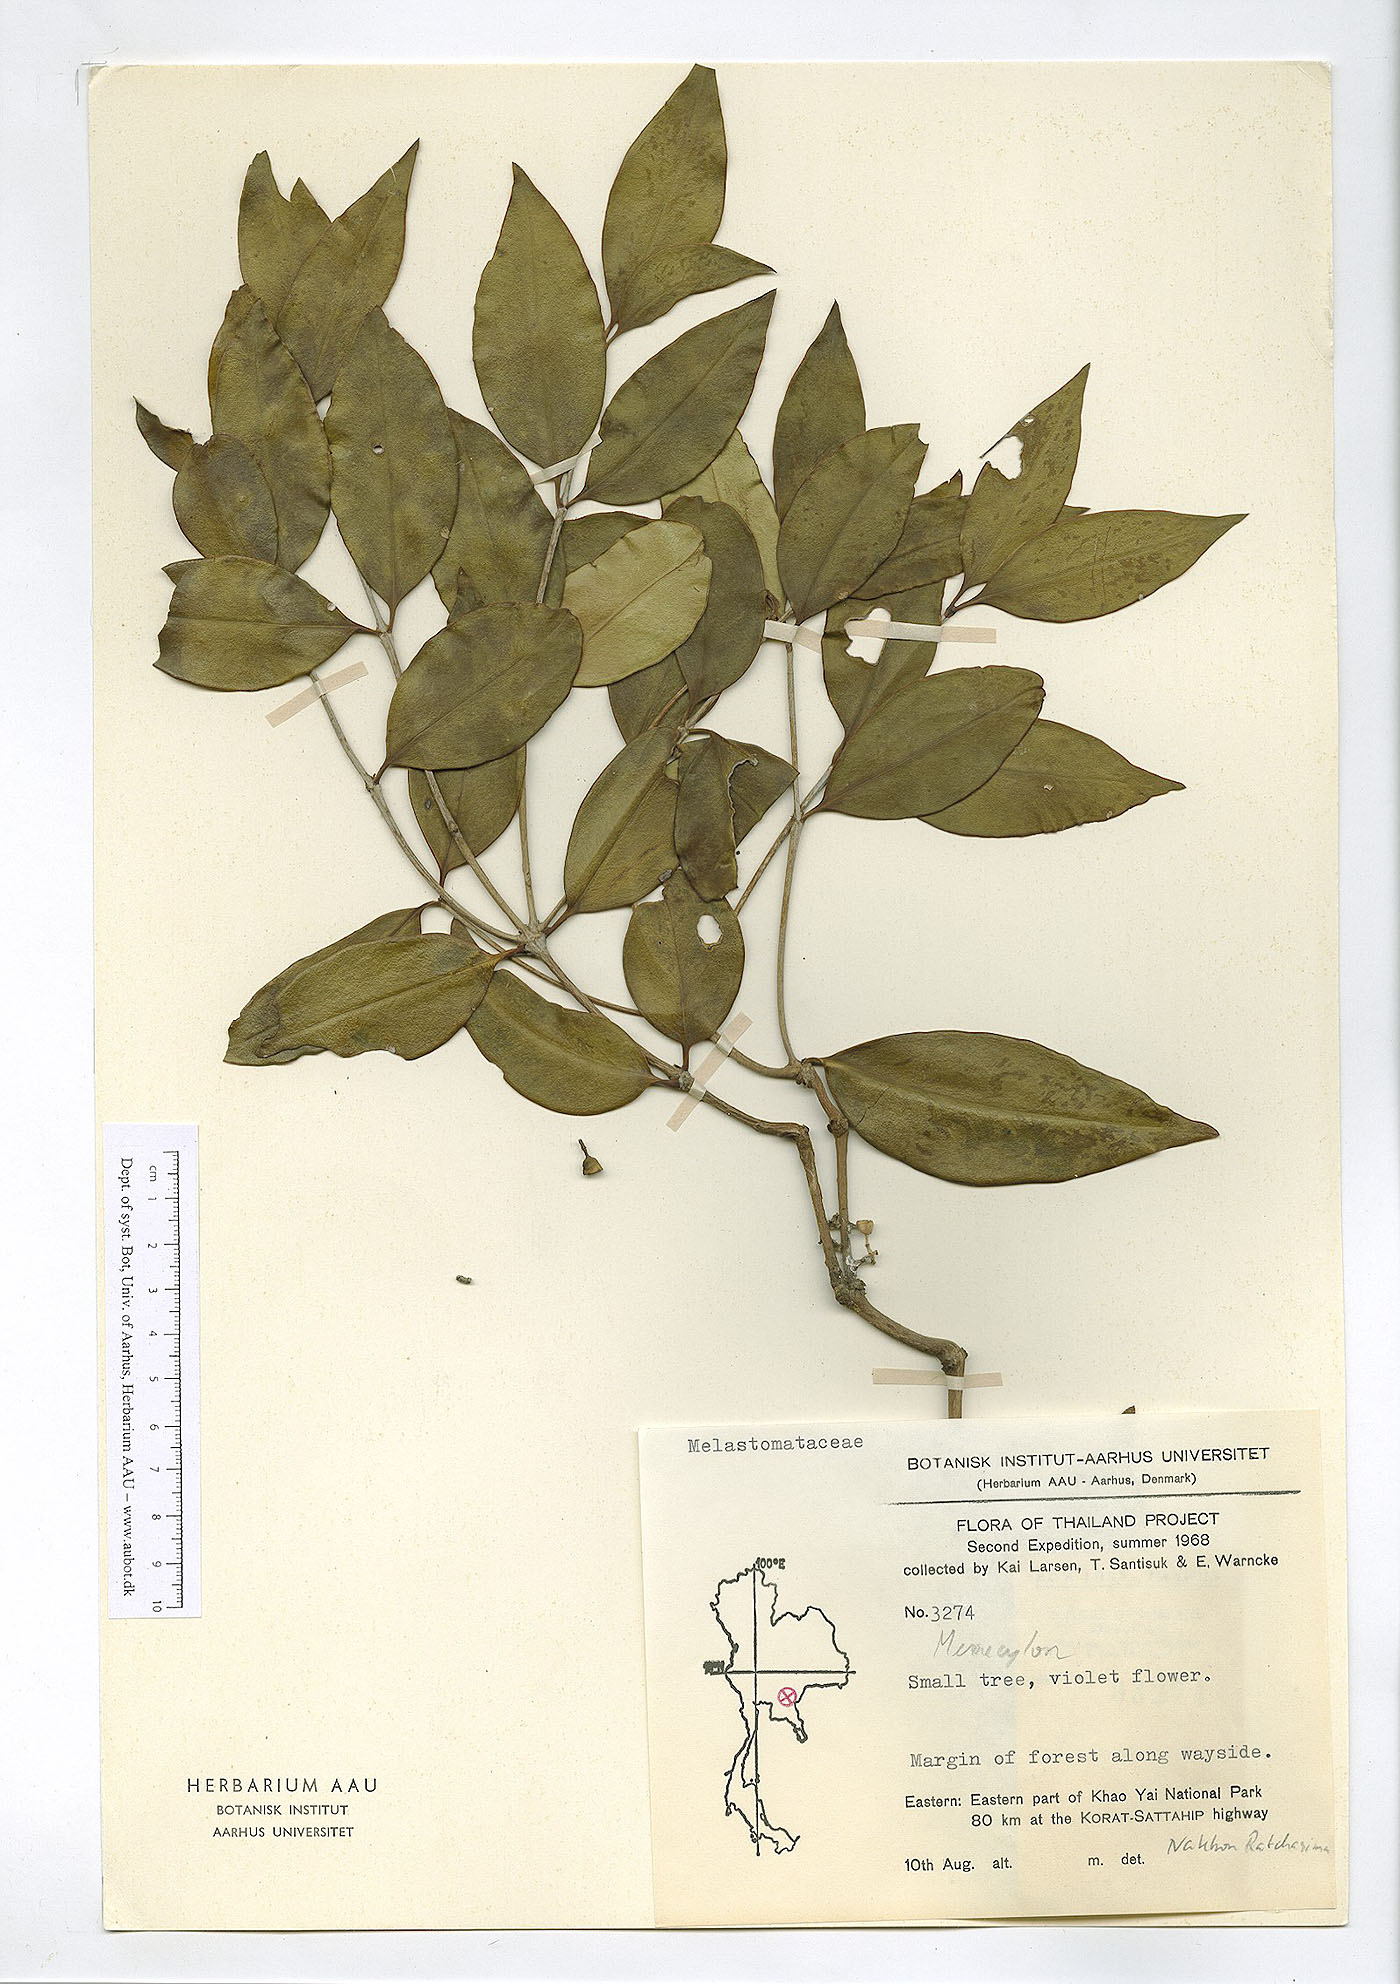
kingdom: Plantae
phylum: Tracheophyta
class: Magnoliopsida
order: Myrtales
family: Melastomataceae
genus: Memecylon
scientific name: Memecylon caeruleum
